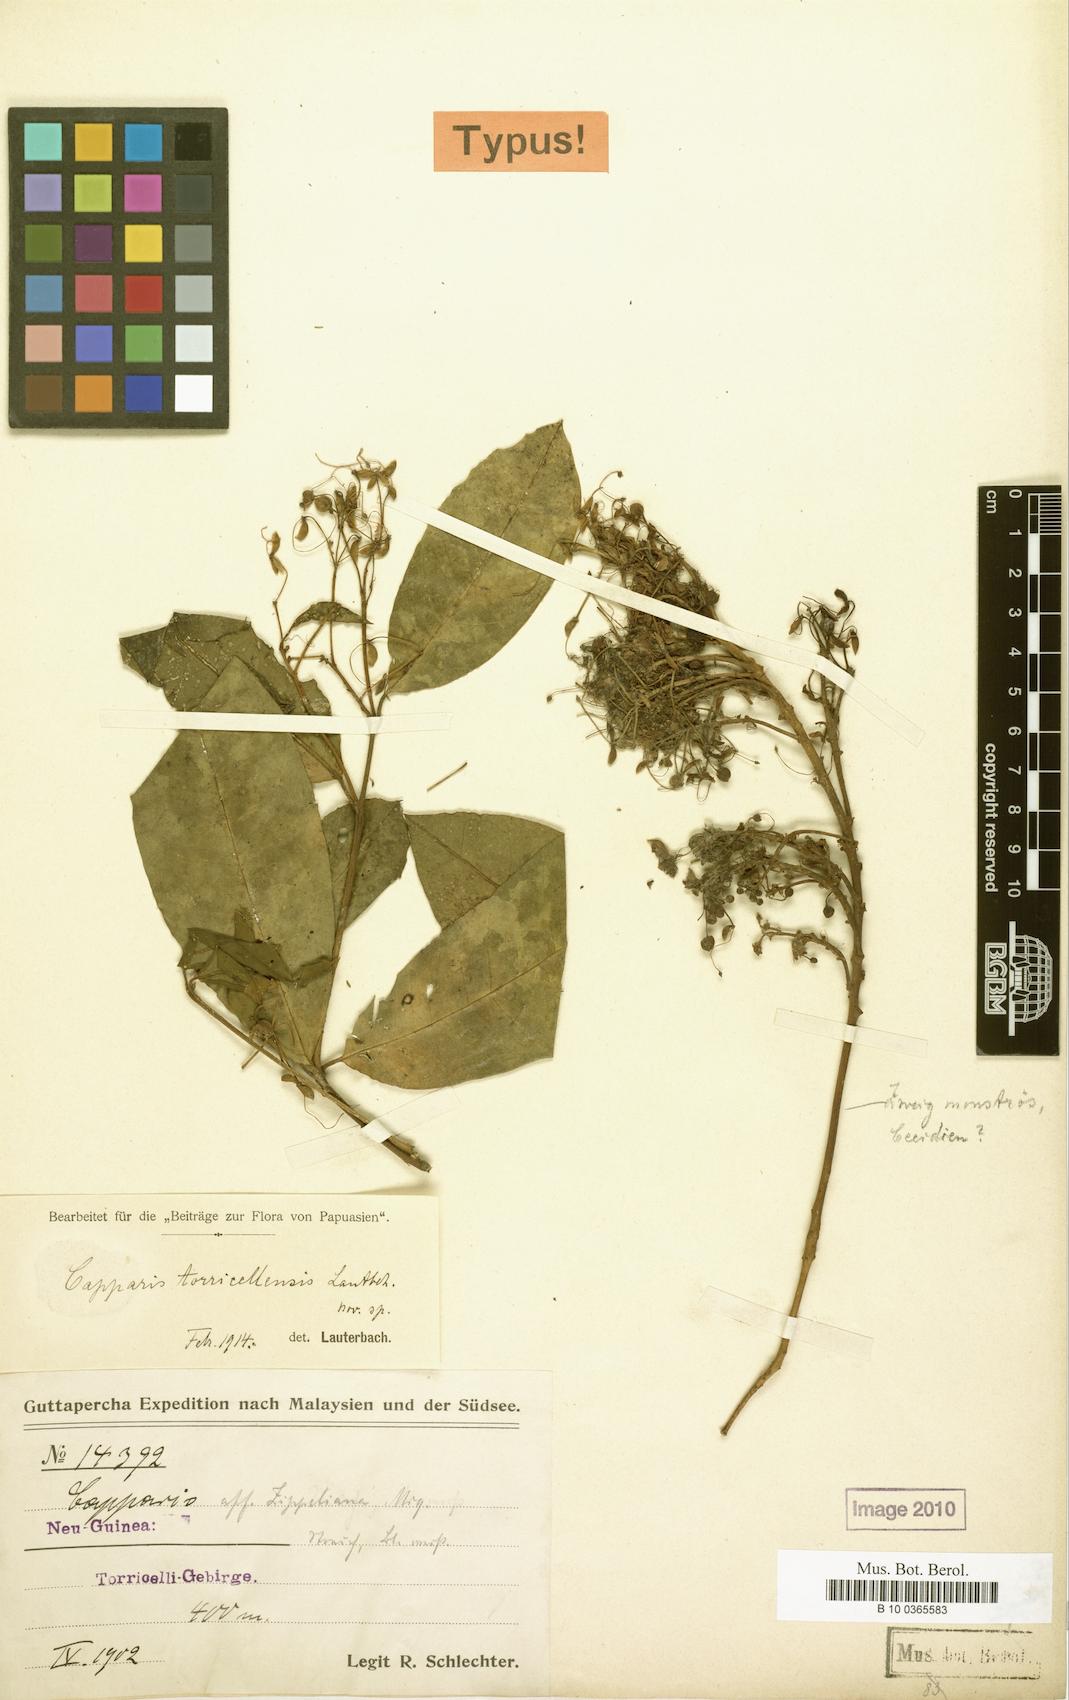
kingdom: Plantae
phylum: Tracheophyta
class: Magnoliopsida
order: Brassicales
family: Capparaceae
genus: Capparis
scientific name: Capparis lanceolaris
